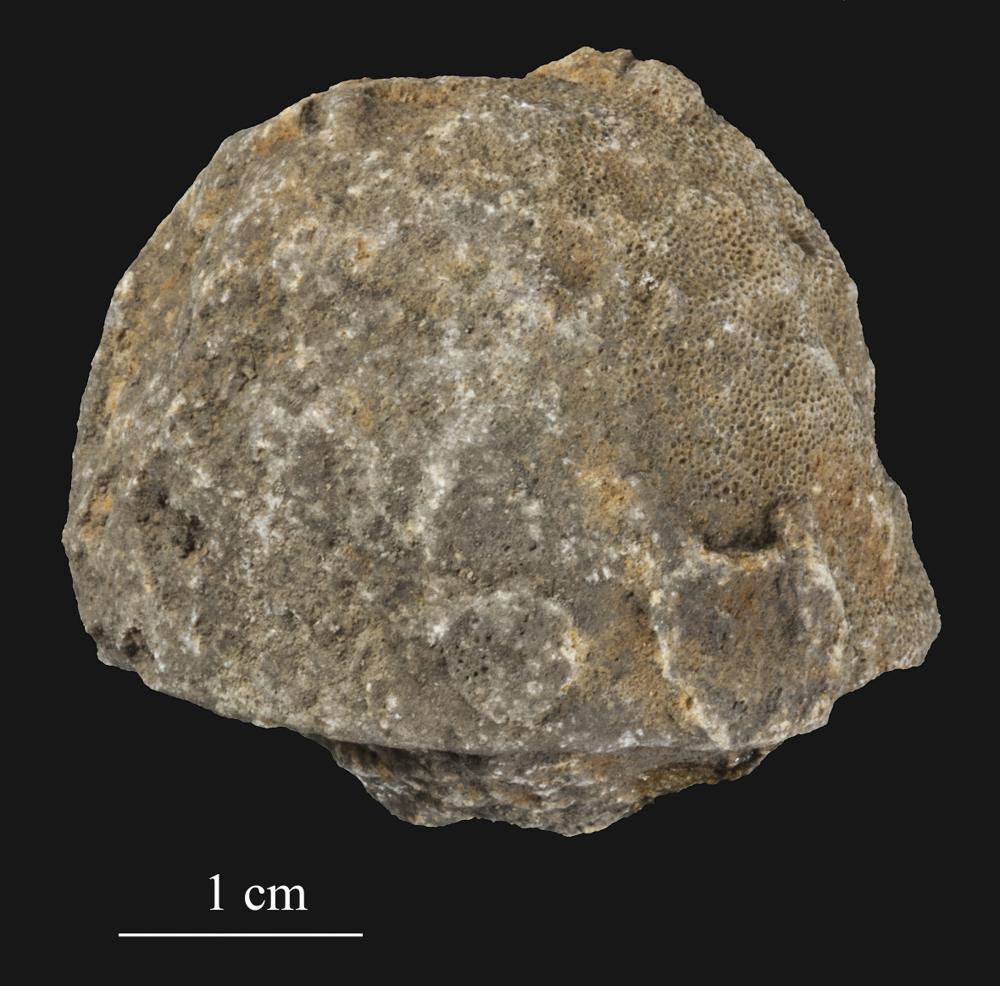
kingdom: Animalia
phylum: Bryozoa
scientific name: Bryozoa
